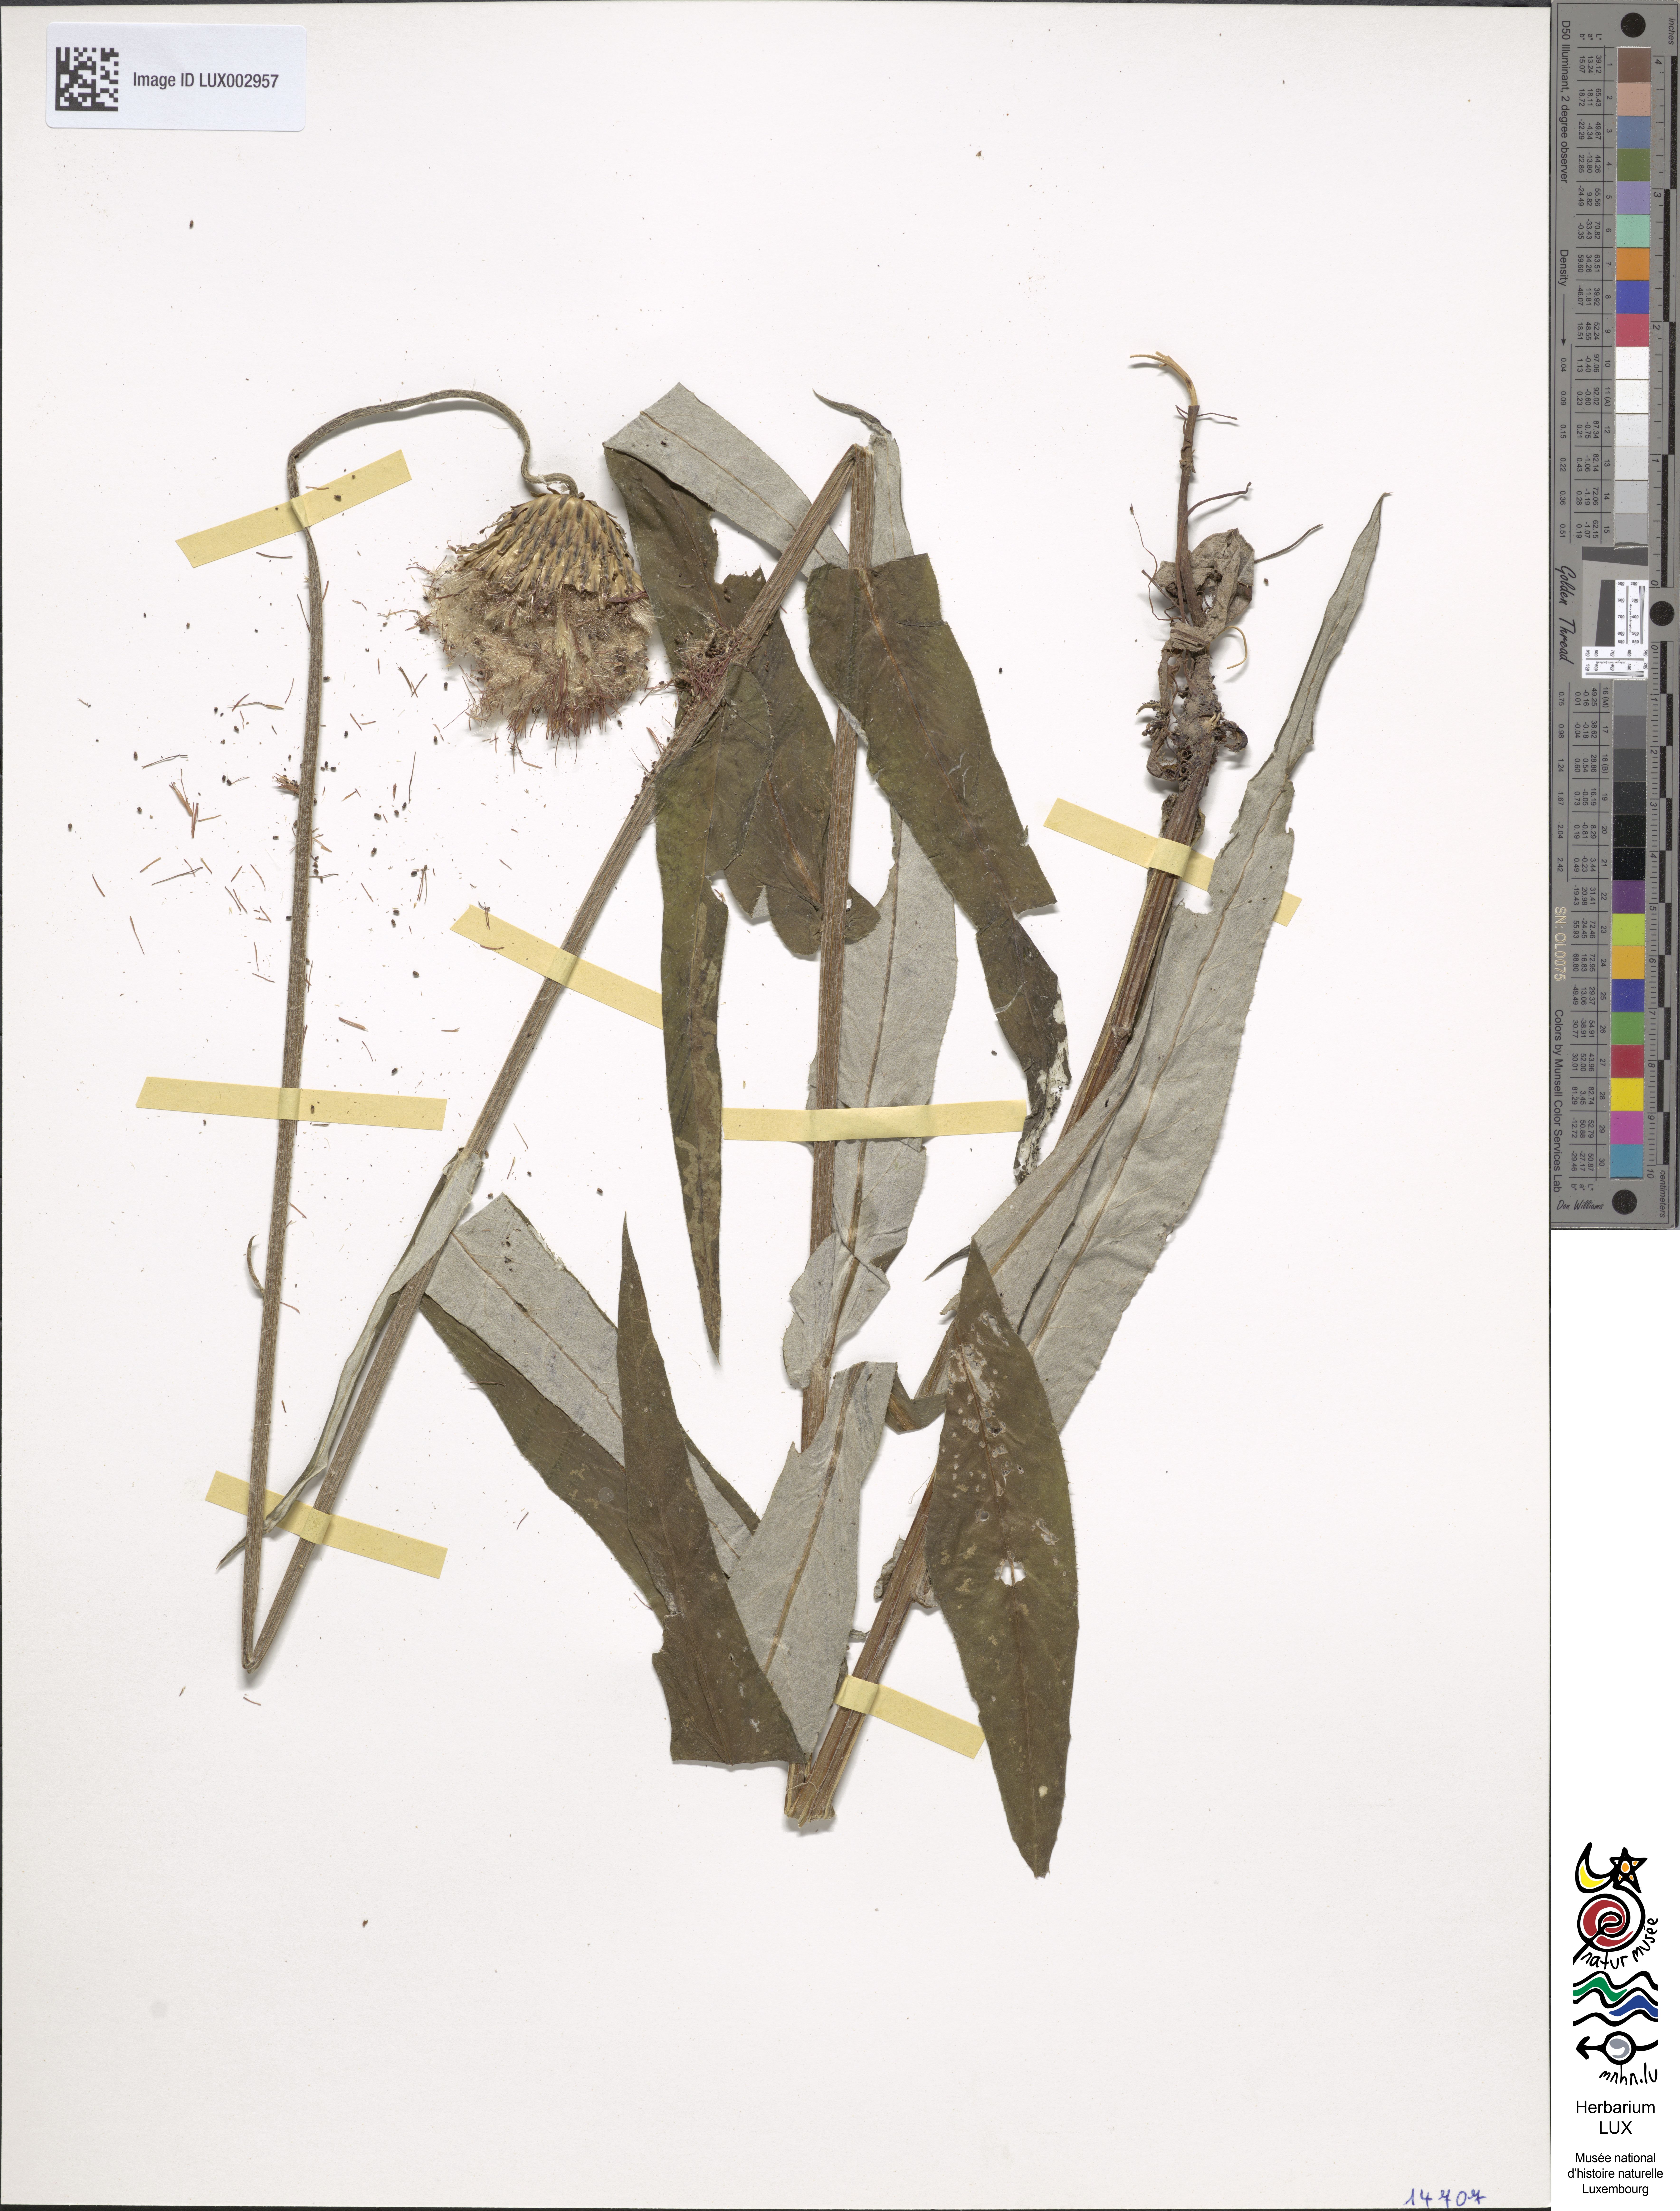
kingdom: Plantae
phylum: Tracheophyta
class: Magnoliopsida
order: Asterales
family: Asteraceae
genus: Cirsium
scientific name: Cirsium heterophyllum
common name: Melancholy thistle
